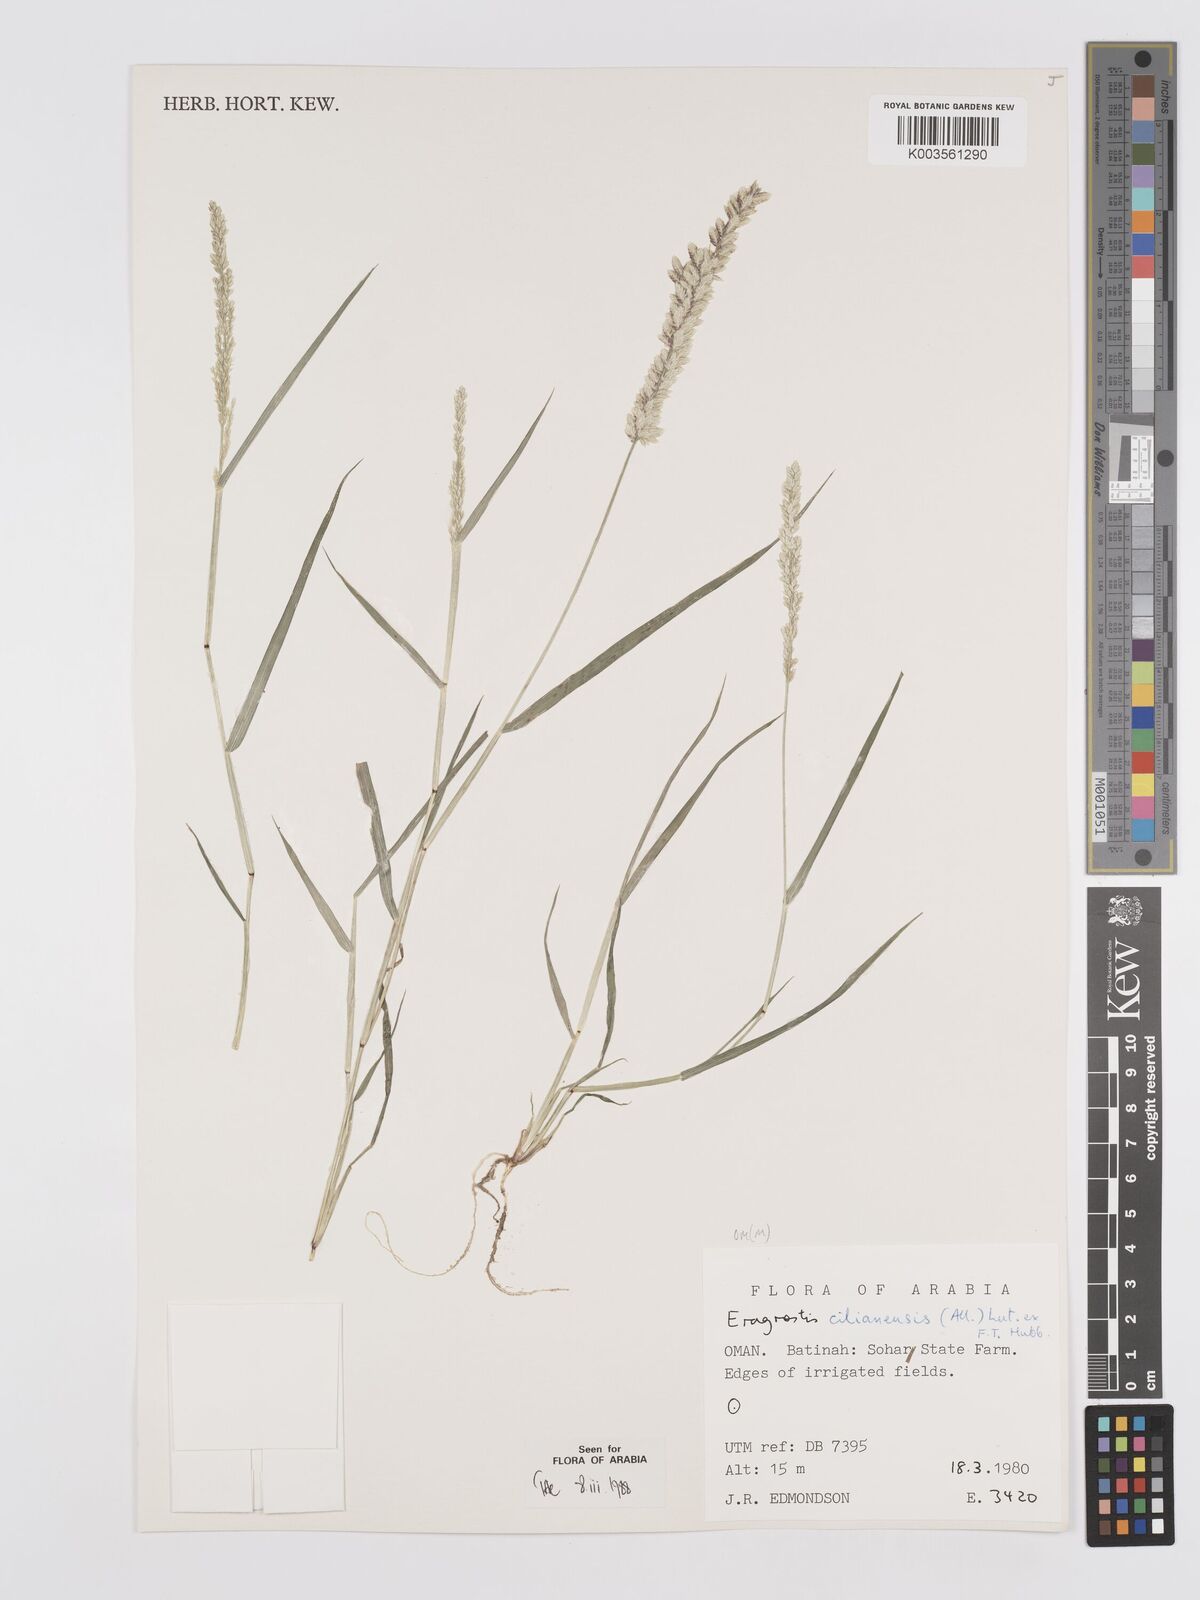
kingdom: Plantae
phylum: Tracheophyta
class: Liliopsida
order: Poales
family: Poaceae
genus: Eragrostis
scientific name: Eragrostis cilianensis
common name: Stinkgrass
